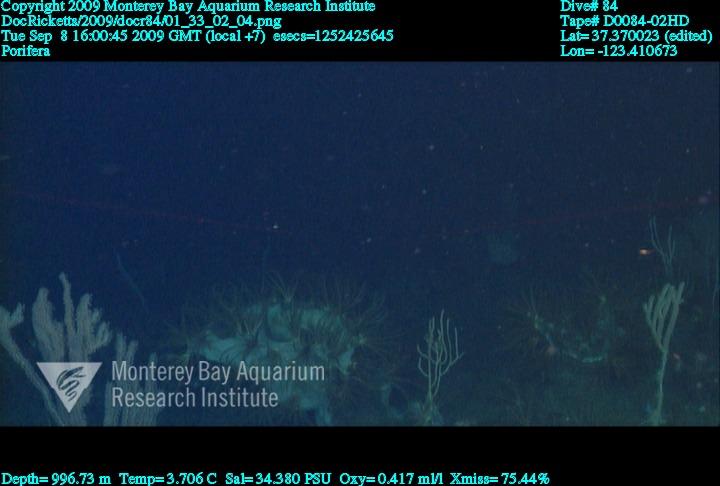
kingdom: Animalia
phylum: Porifera
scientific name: Porifera
